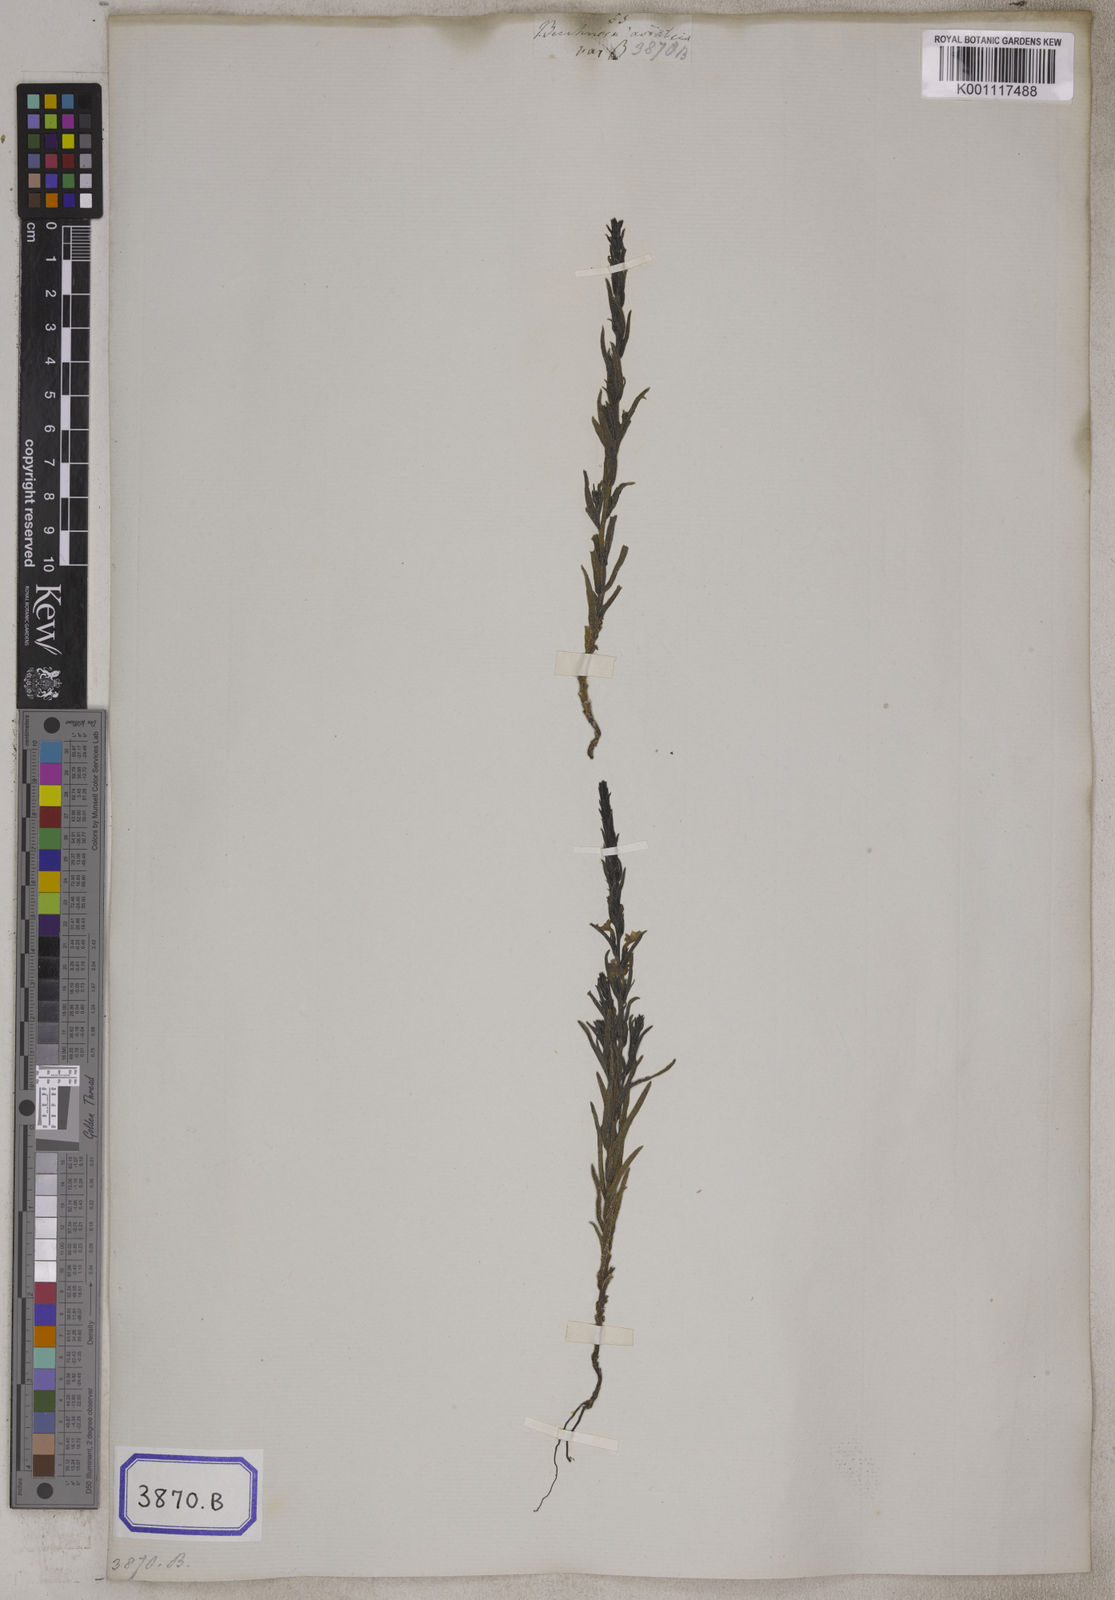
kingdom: Plantae
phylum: Tracheophyta
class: Magnoliopsida
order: Lamiales
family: Orobanchaceae
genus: Striga
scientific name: Striga asiatica
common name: Asiatic witchweed
